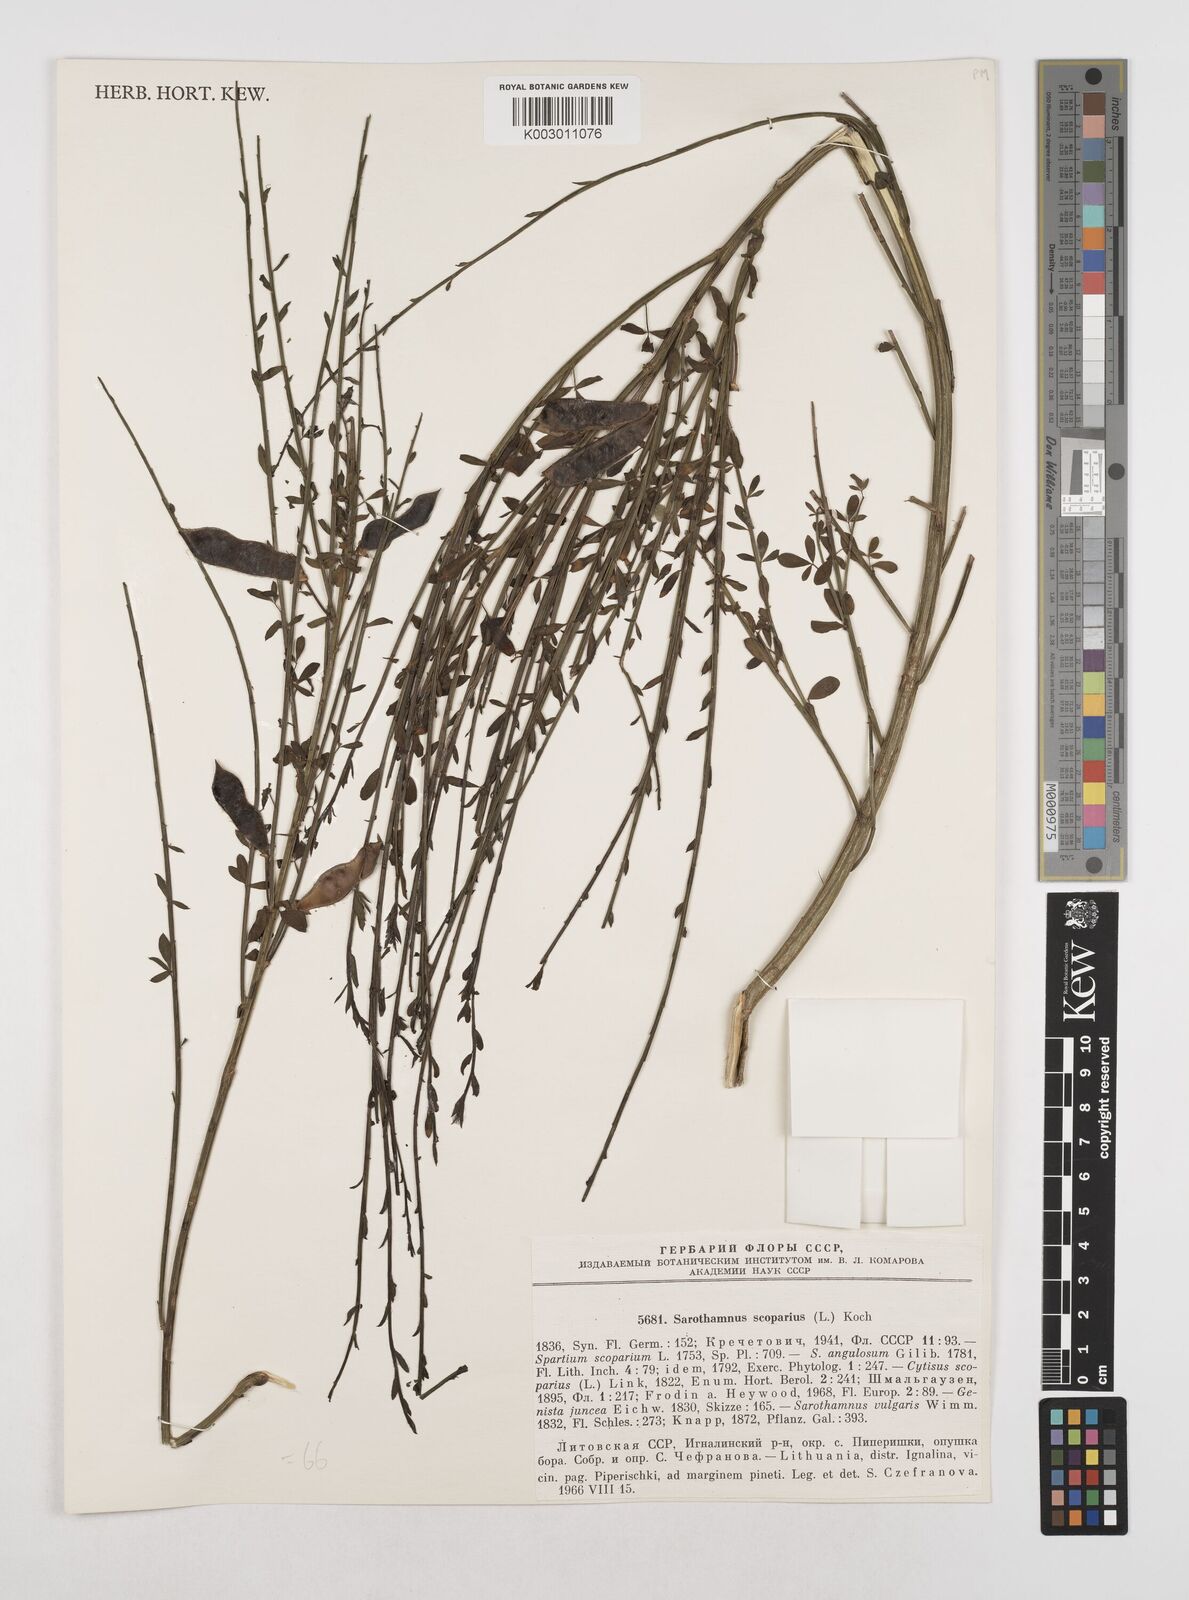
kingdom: Plantae
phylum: Tracheophyta
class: Magnoliopsida
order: Fabales
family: Fabaceae
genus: Cytisus
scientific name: Cytisus scoparius
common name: Scotch broom
